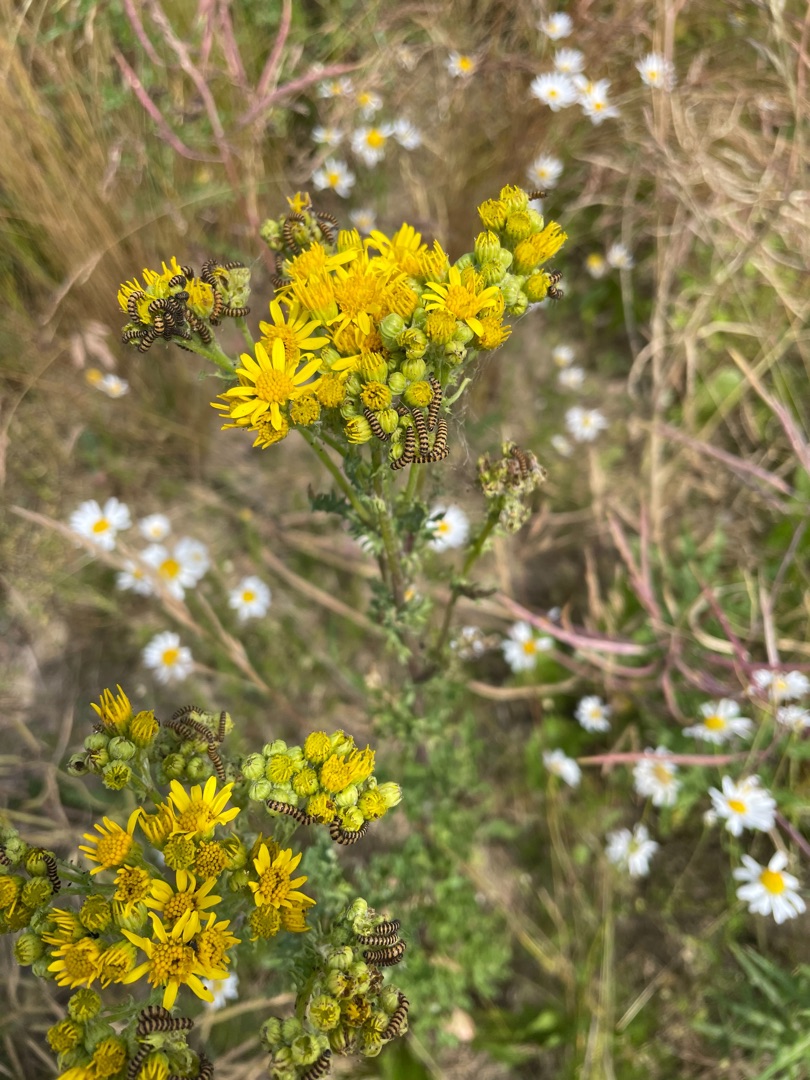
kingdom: Animalia
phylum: Arthropoda
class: Insecta
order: Lepidoptera
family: Erebidae
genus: Tyria
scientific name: Tyria jacobaeae
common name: Blodplet
